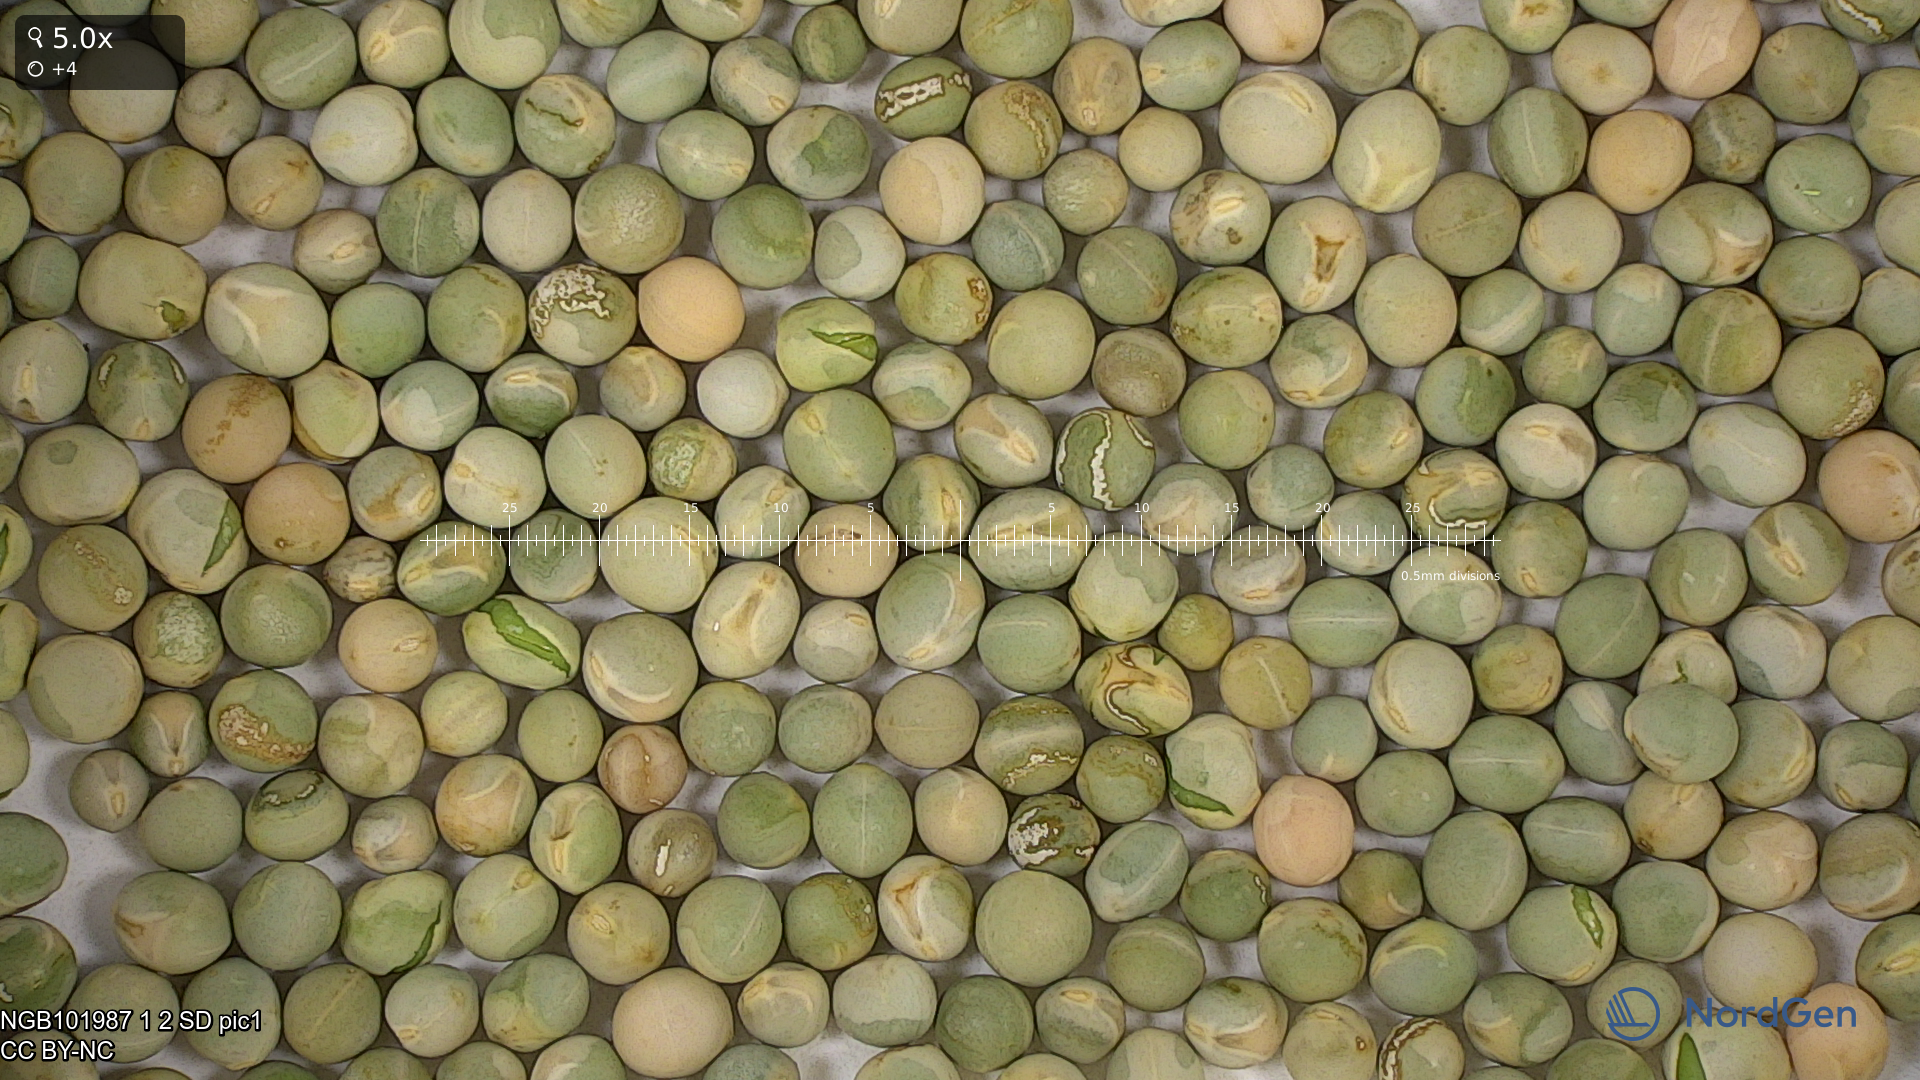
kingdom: Plantae
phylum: Tracheophyta
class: Magnoliopsida
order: Fabales
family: Fabaceae
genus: Lathyrus
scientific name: Lathyrus oleraceus
